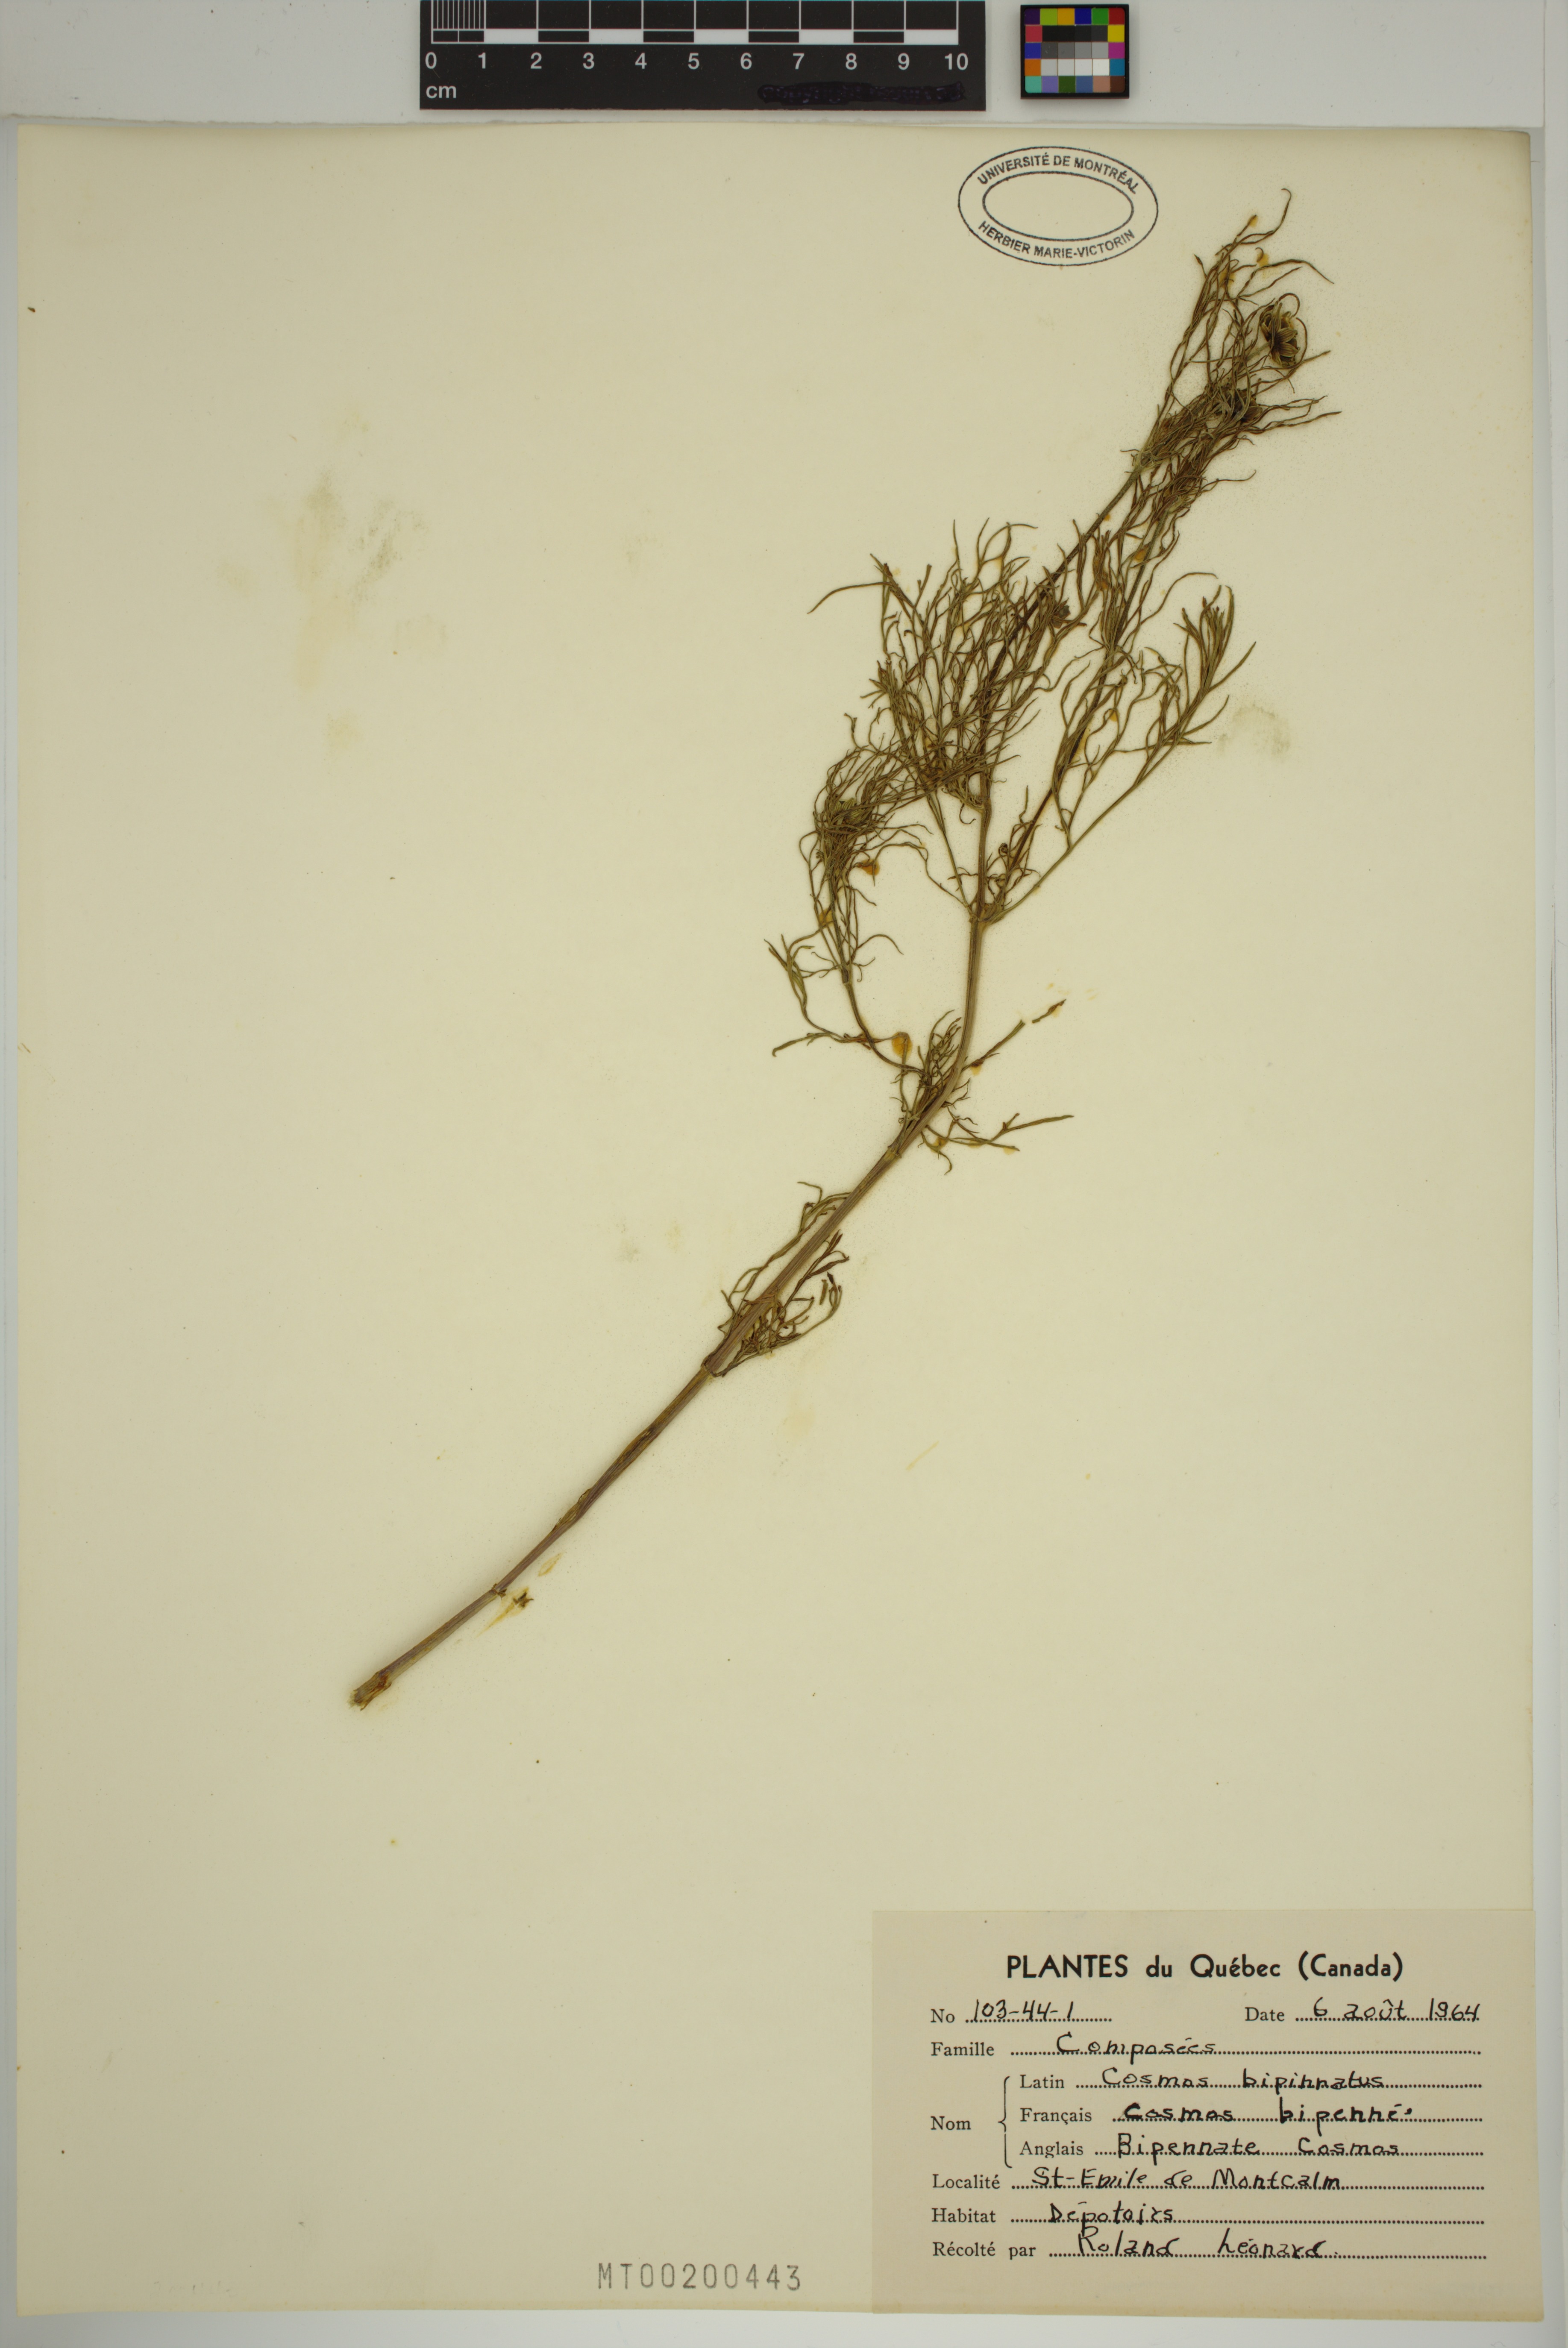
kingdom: Plantae
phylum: Tracheophyta
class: Magnoliopsida
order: Asterales
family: Asteraceae
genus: Cosmos
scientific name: Cosmos bipinnatus
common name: Garden cosmos
